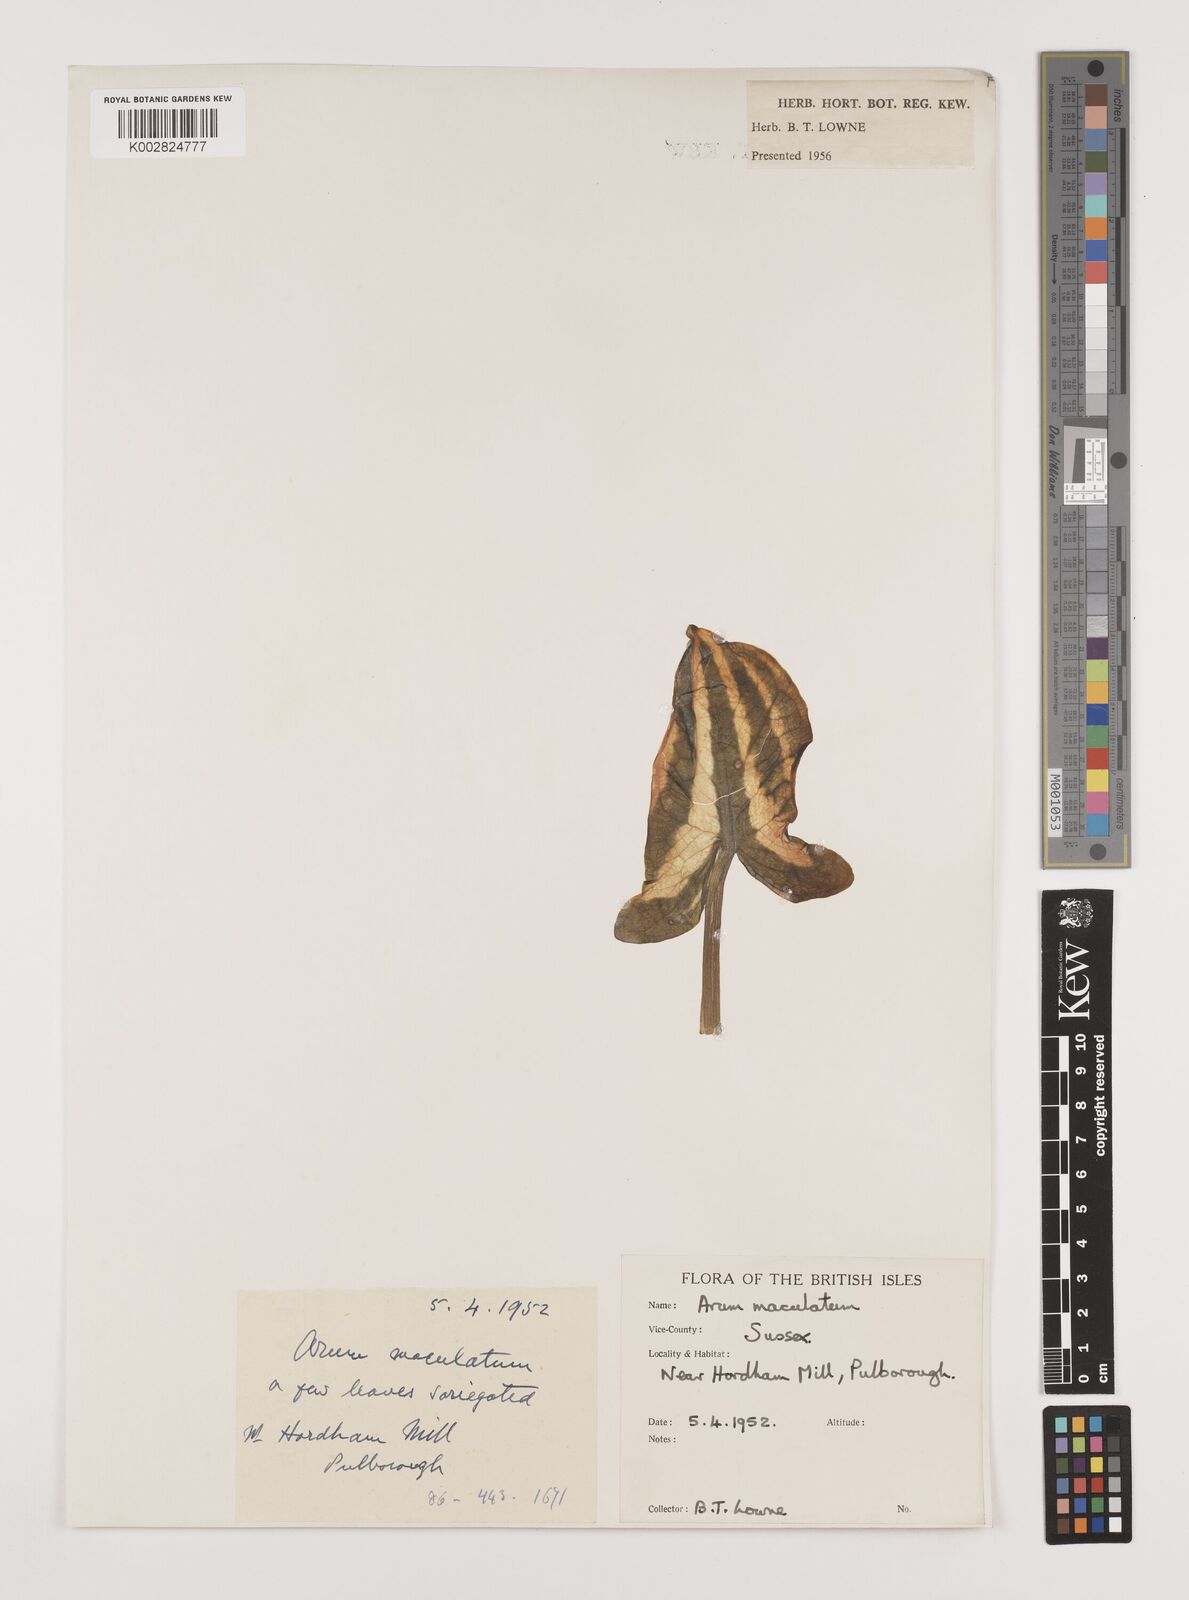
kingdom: Plantae
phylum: Tracheophyta
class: Liliopsida
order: Alismatales
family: Araceae
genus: Arum
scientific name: Arum maculatum
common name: Lords-and-ladies
